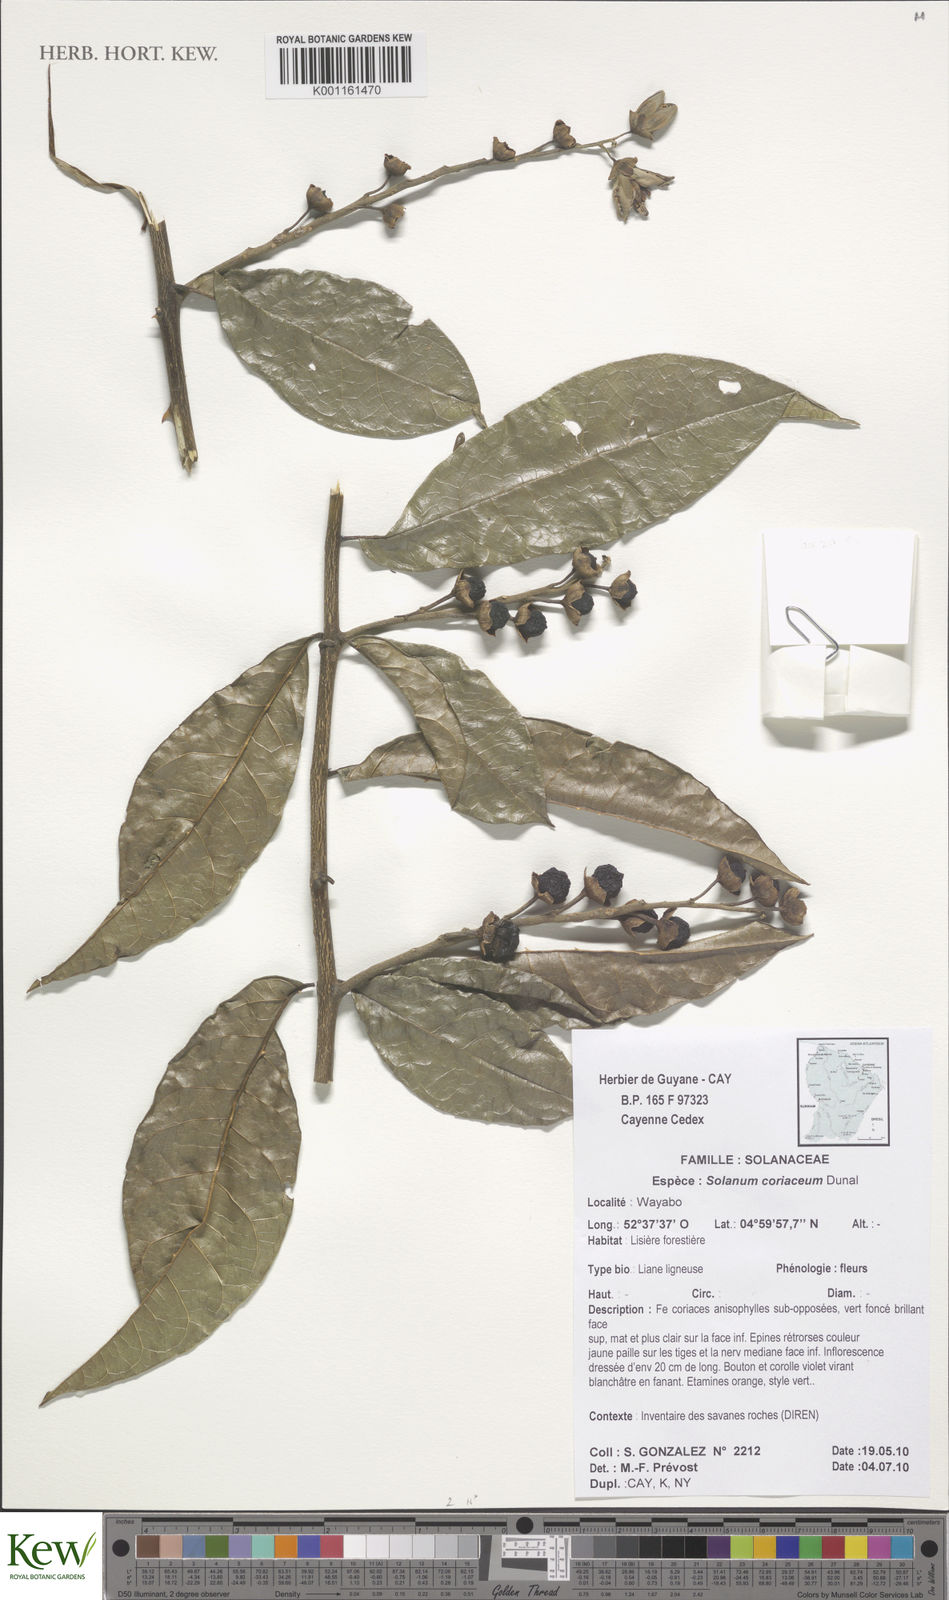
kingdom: Plantae
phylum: Tracheophyta
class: Magnoliopsida
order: Solanales
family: Solanaceae
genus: Solanum
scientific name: Solanum coriaceum
